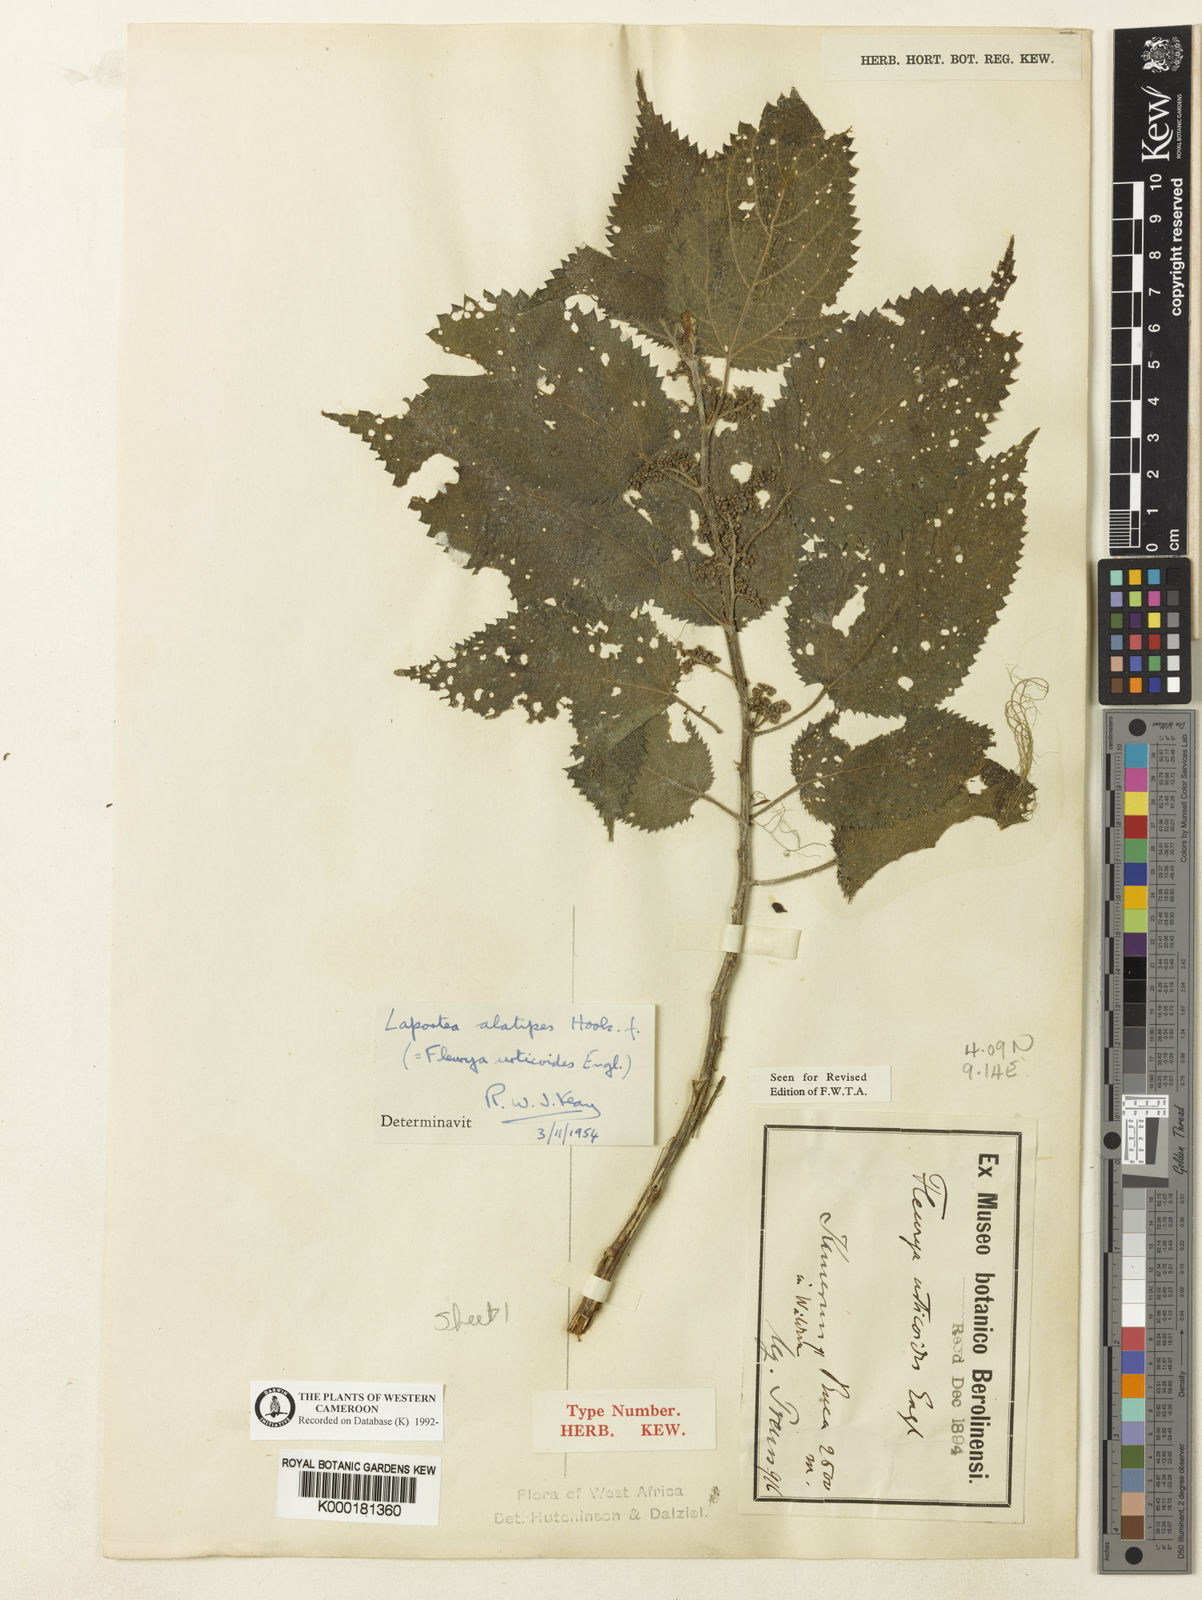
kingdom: Plantae
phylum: Tracheophyta
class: Magnoliopsida
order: Rosales
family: Urticaceae
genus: Laportea
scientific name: Laportea alatipes
